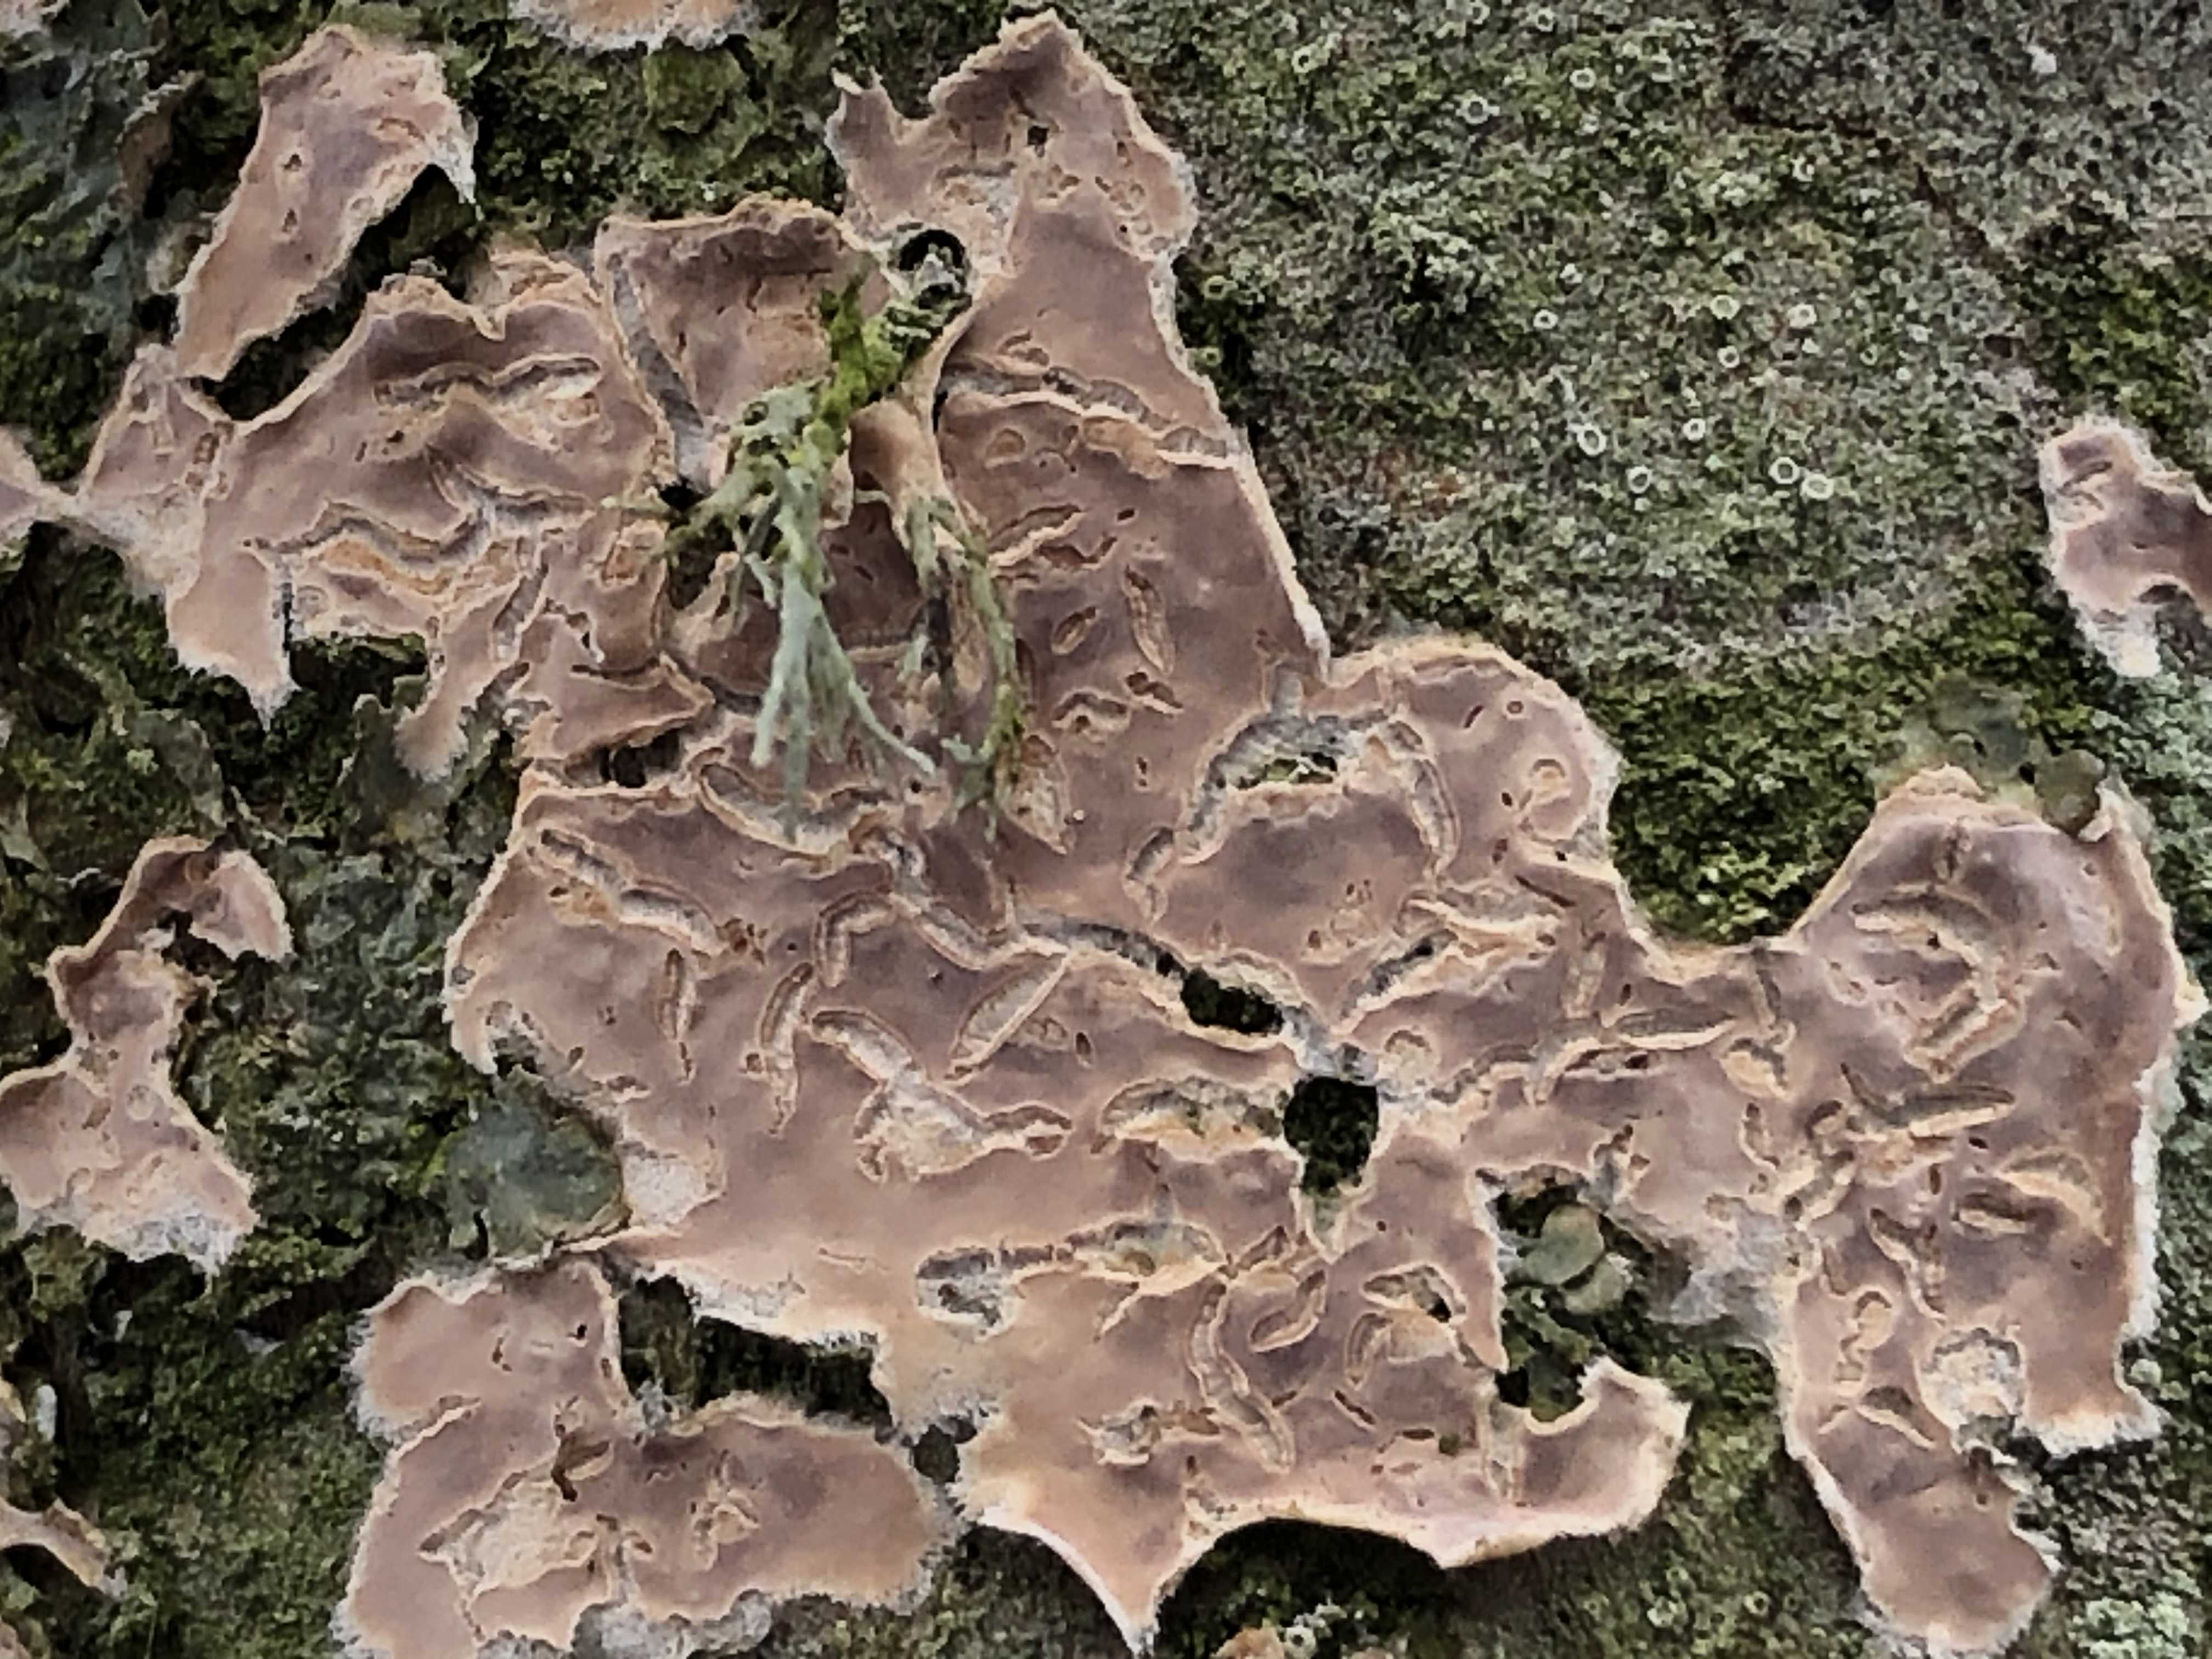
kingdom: Fungi
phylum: Basidiomycota
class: Agaricomycetes
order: Agaricales
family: Physalacriaceae
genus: Cylindrobasidium
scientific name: Cylindrobasidium evolvens
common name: sprækkehinde
